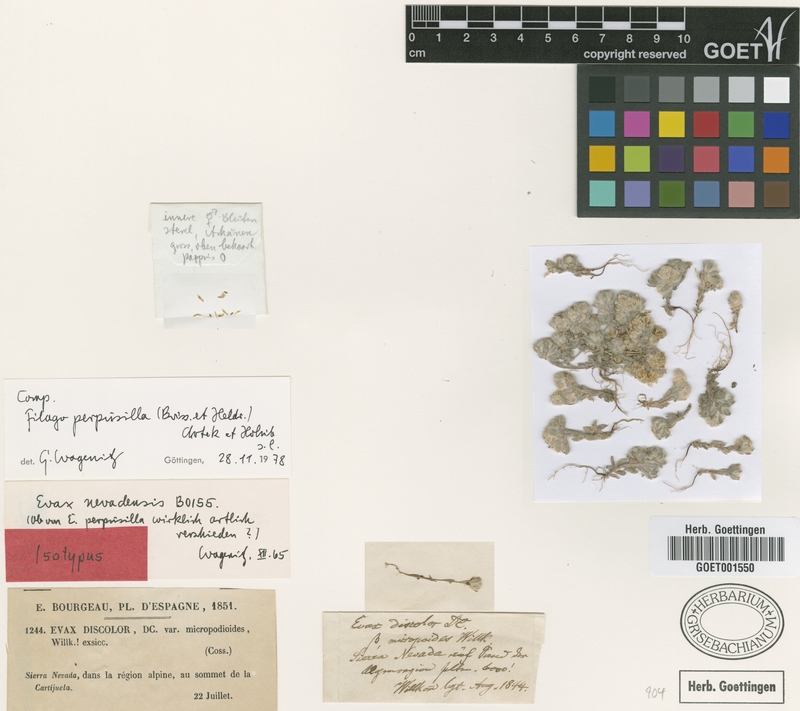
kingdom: Plantae
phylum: Tracheophyta
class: Magnoliopsida
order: Asterales
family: Asteraceae
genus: Filago
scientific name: Filago perpusilla
